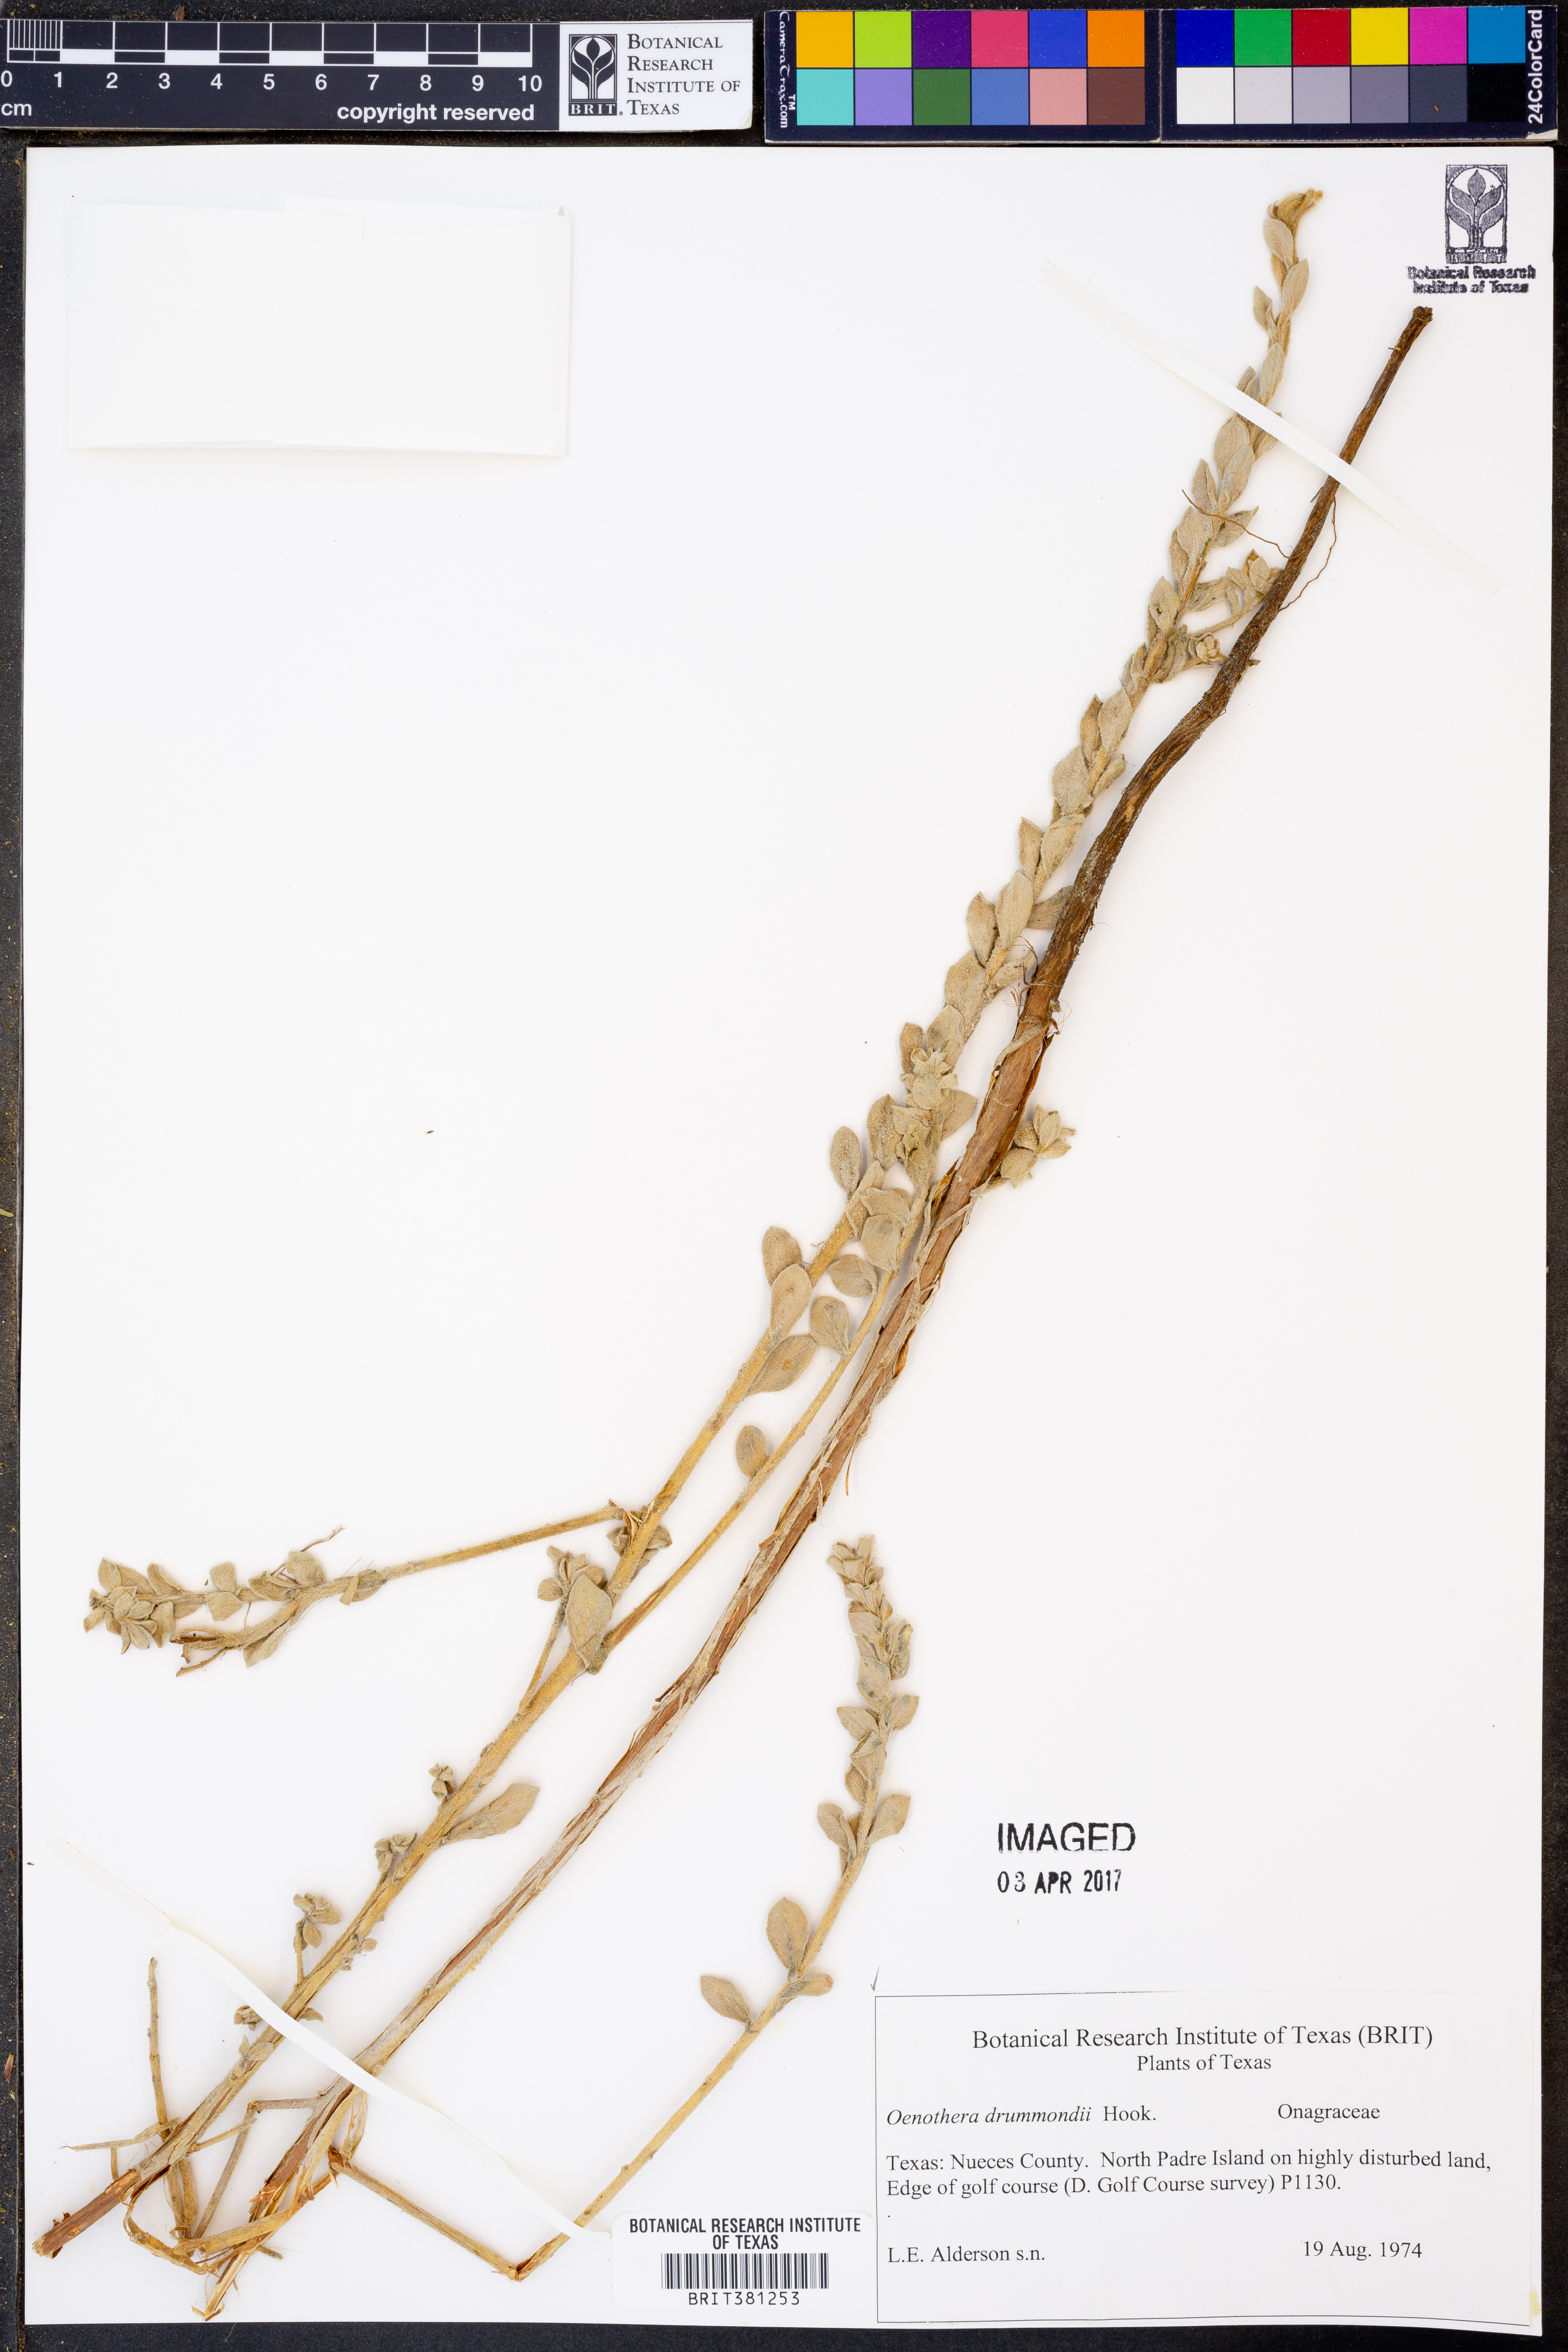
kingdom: Plantae
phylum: Tracheophyta
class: Magnoliopsida
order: Myrtales
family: Onagraceae
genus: Oenothera
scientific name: Oenothera drummondii
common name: Beach evening-primrose
